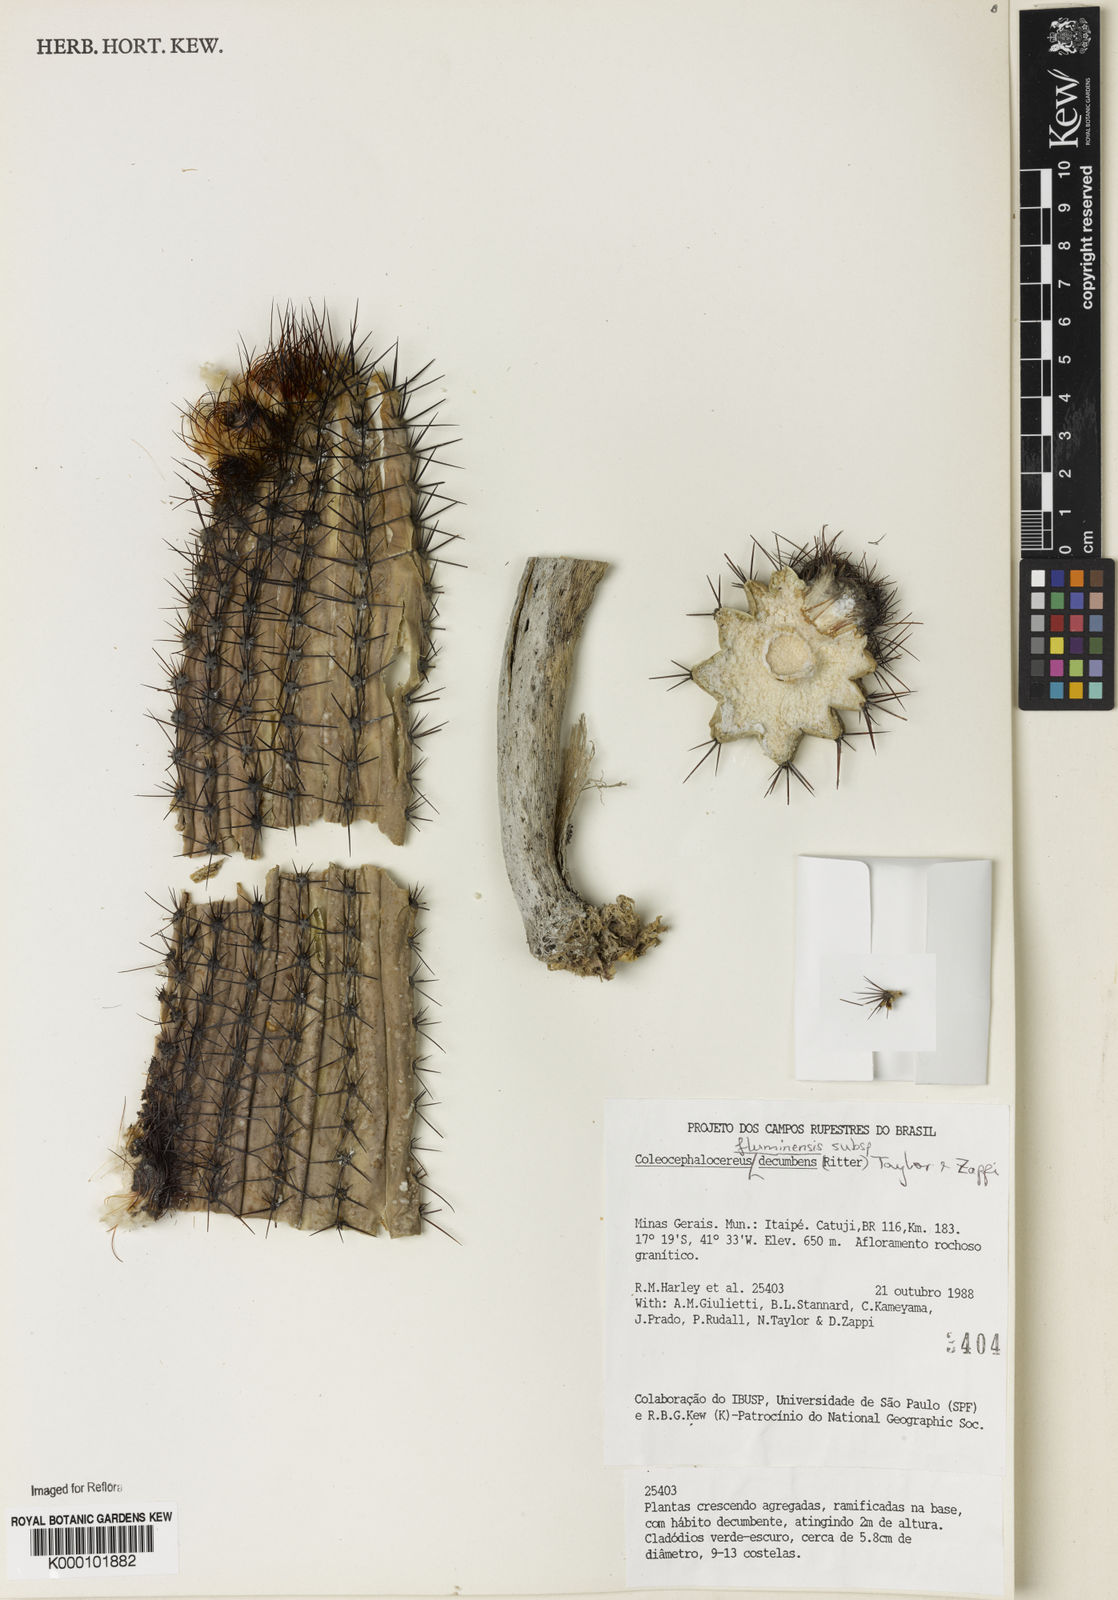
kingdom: Plantae
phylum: Tracheophyta
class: Magnoliopsida
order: Caryophyllales
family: Cactaceae
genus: Coleocephalocereus
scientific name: Coleocephalocereus decumbens
